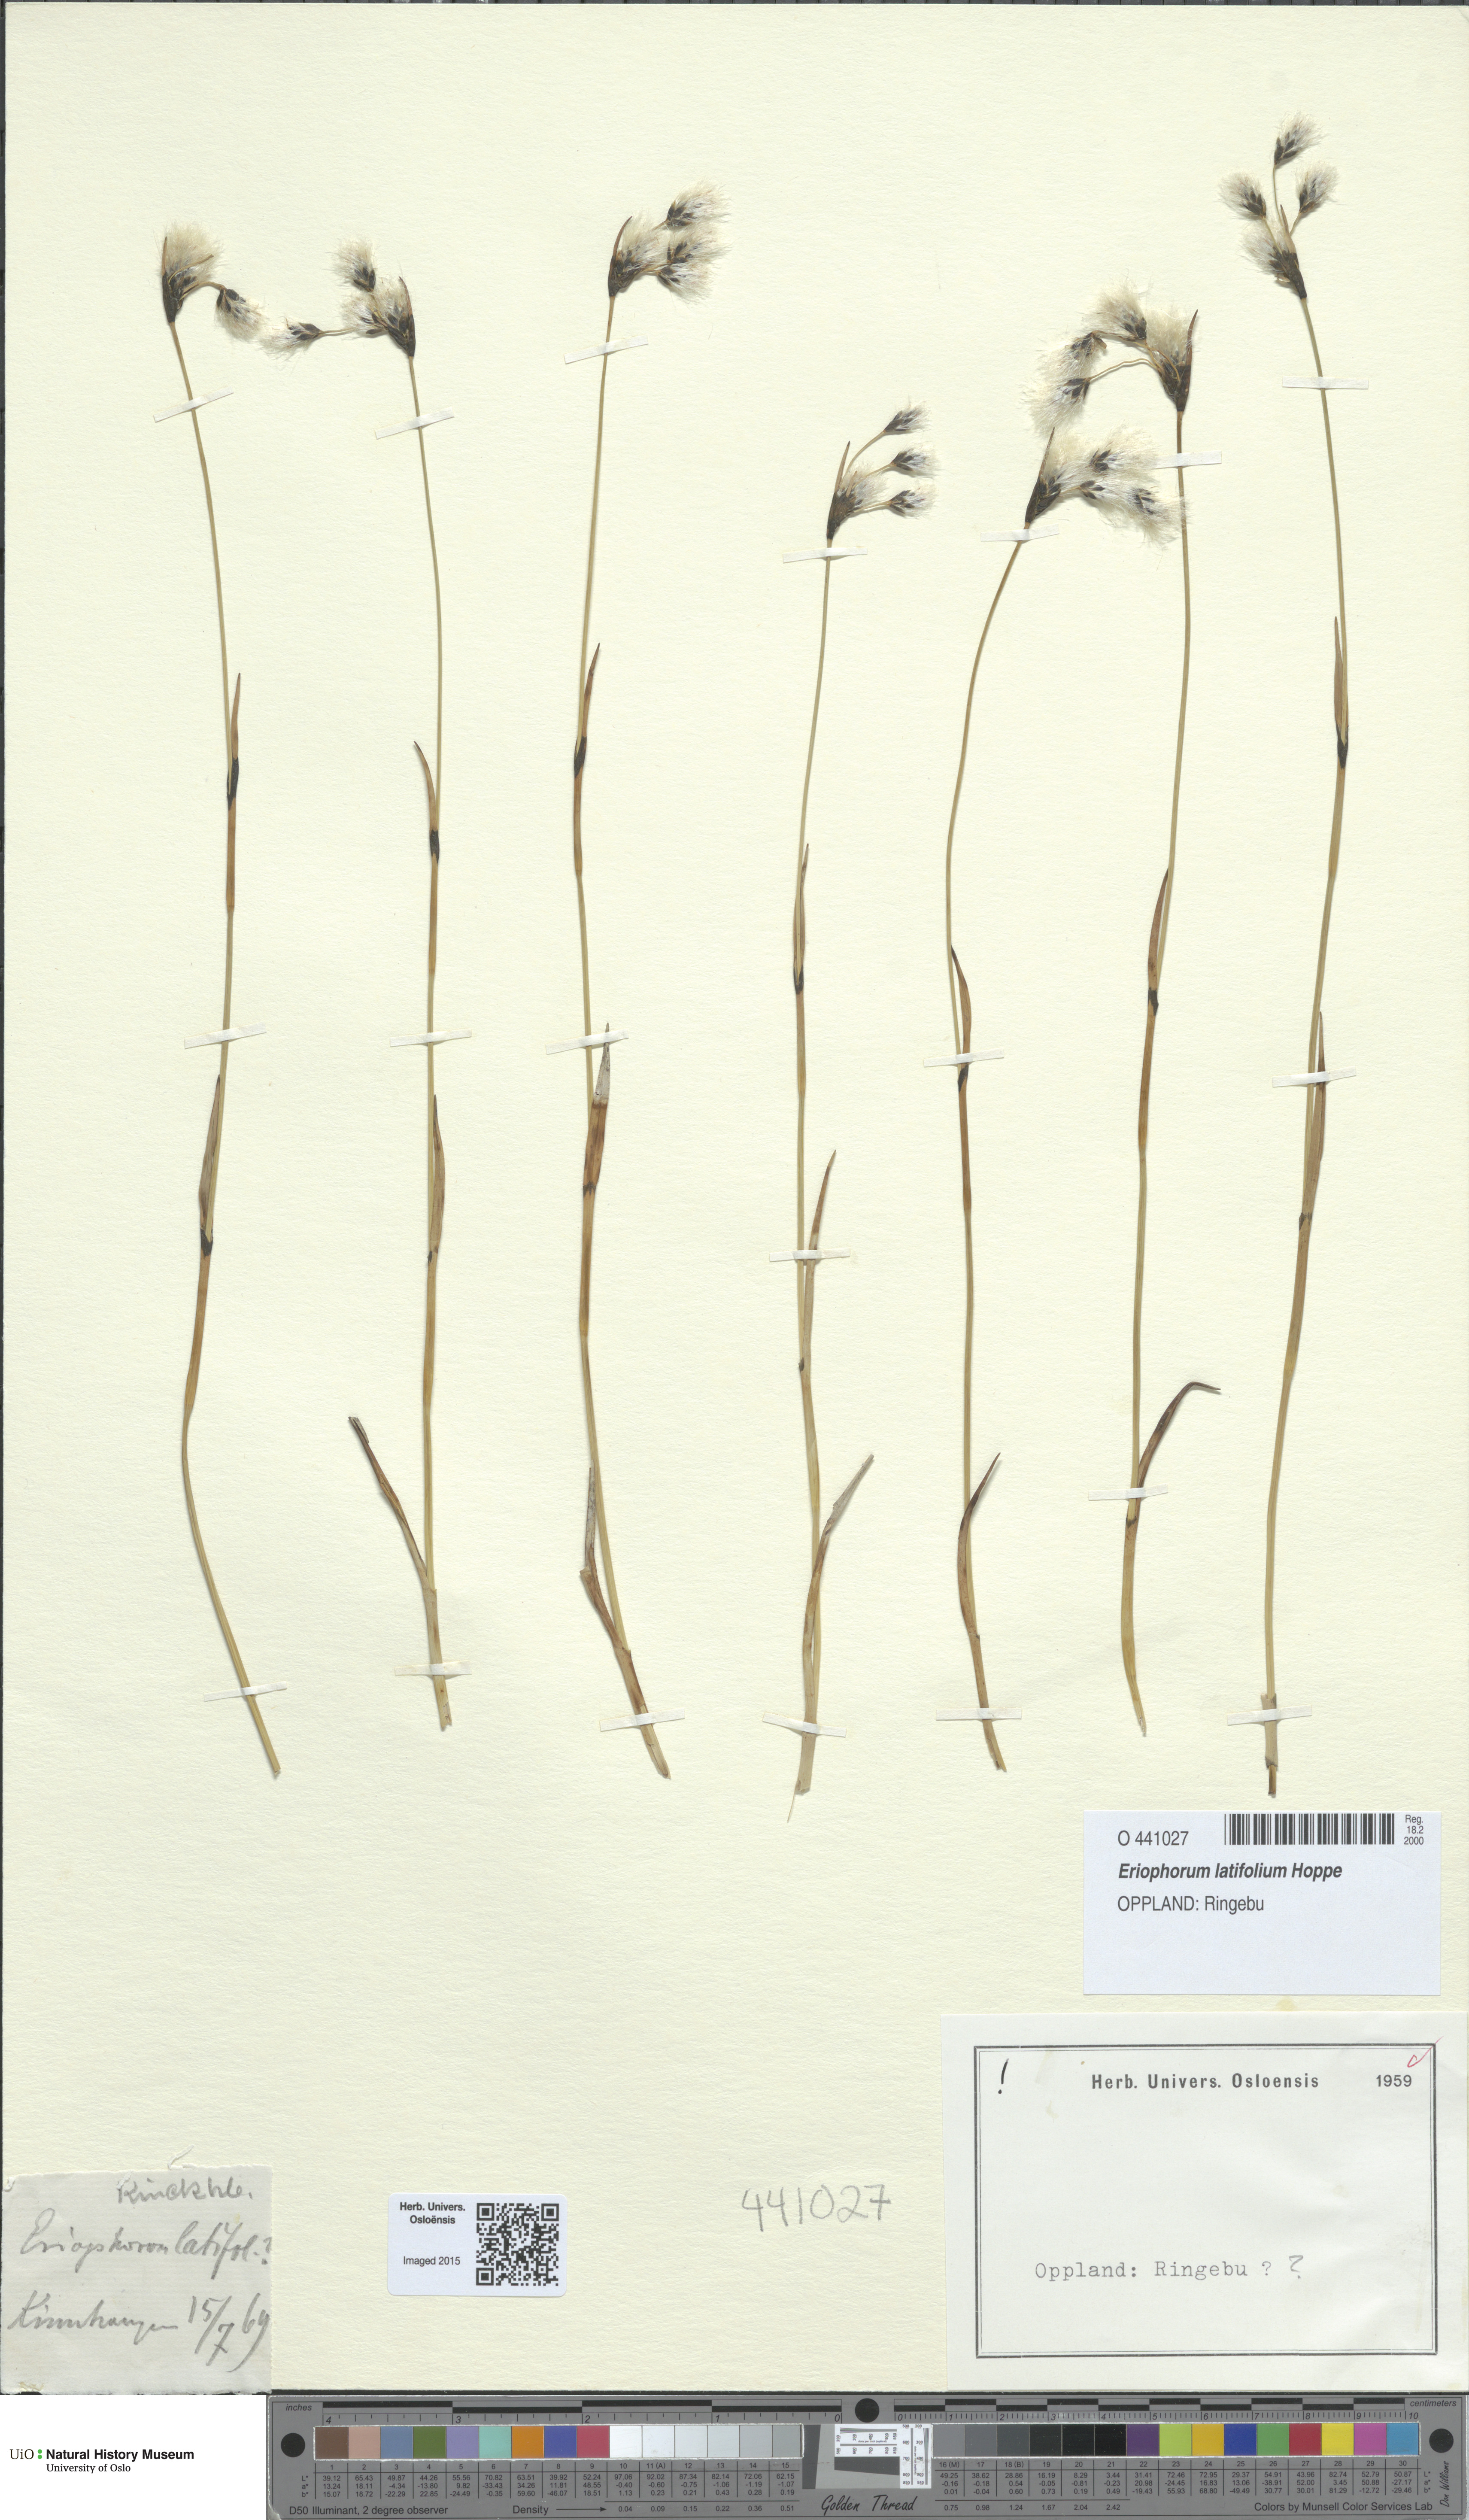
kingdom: Plantae
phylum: Tracheophyta
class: Liliopsida
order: Poales
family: Cyperaceae
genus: Eriophorum
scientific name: Eriophorum latifolium
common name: Broad-leaved cottongrass
